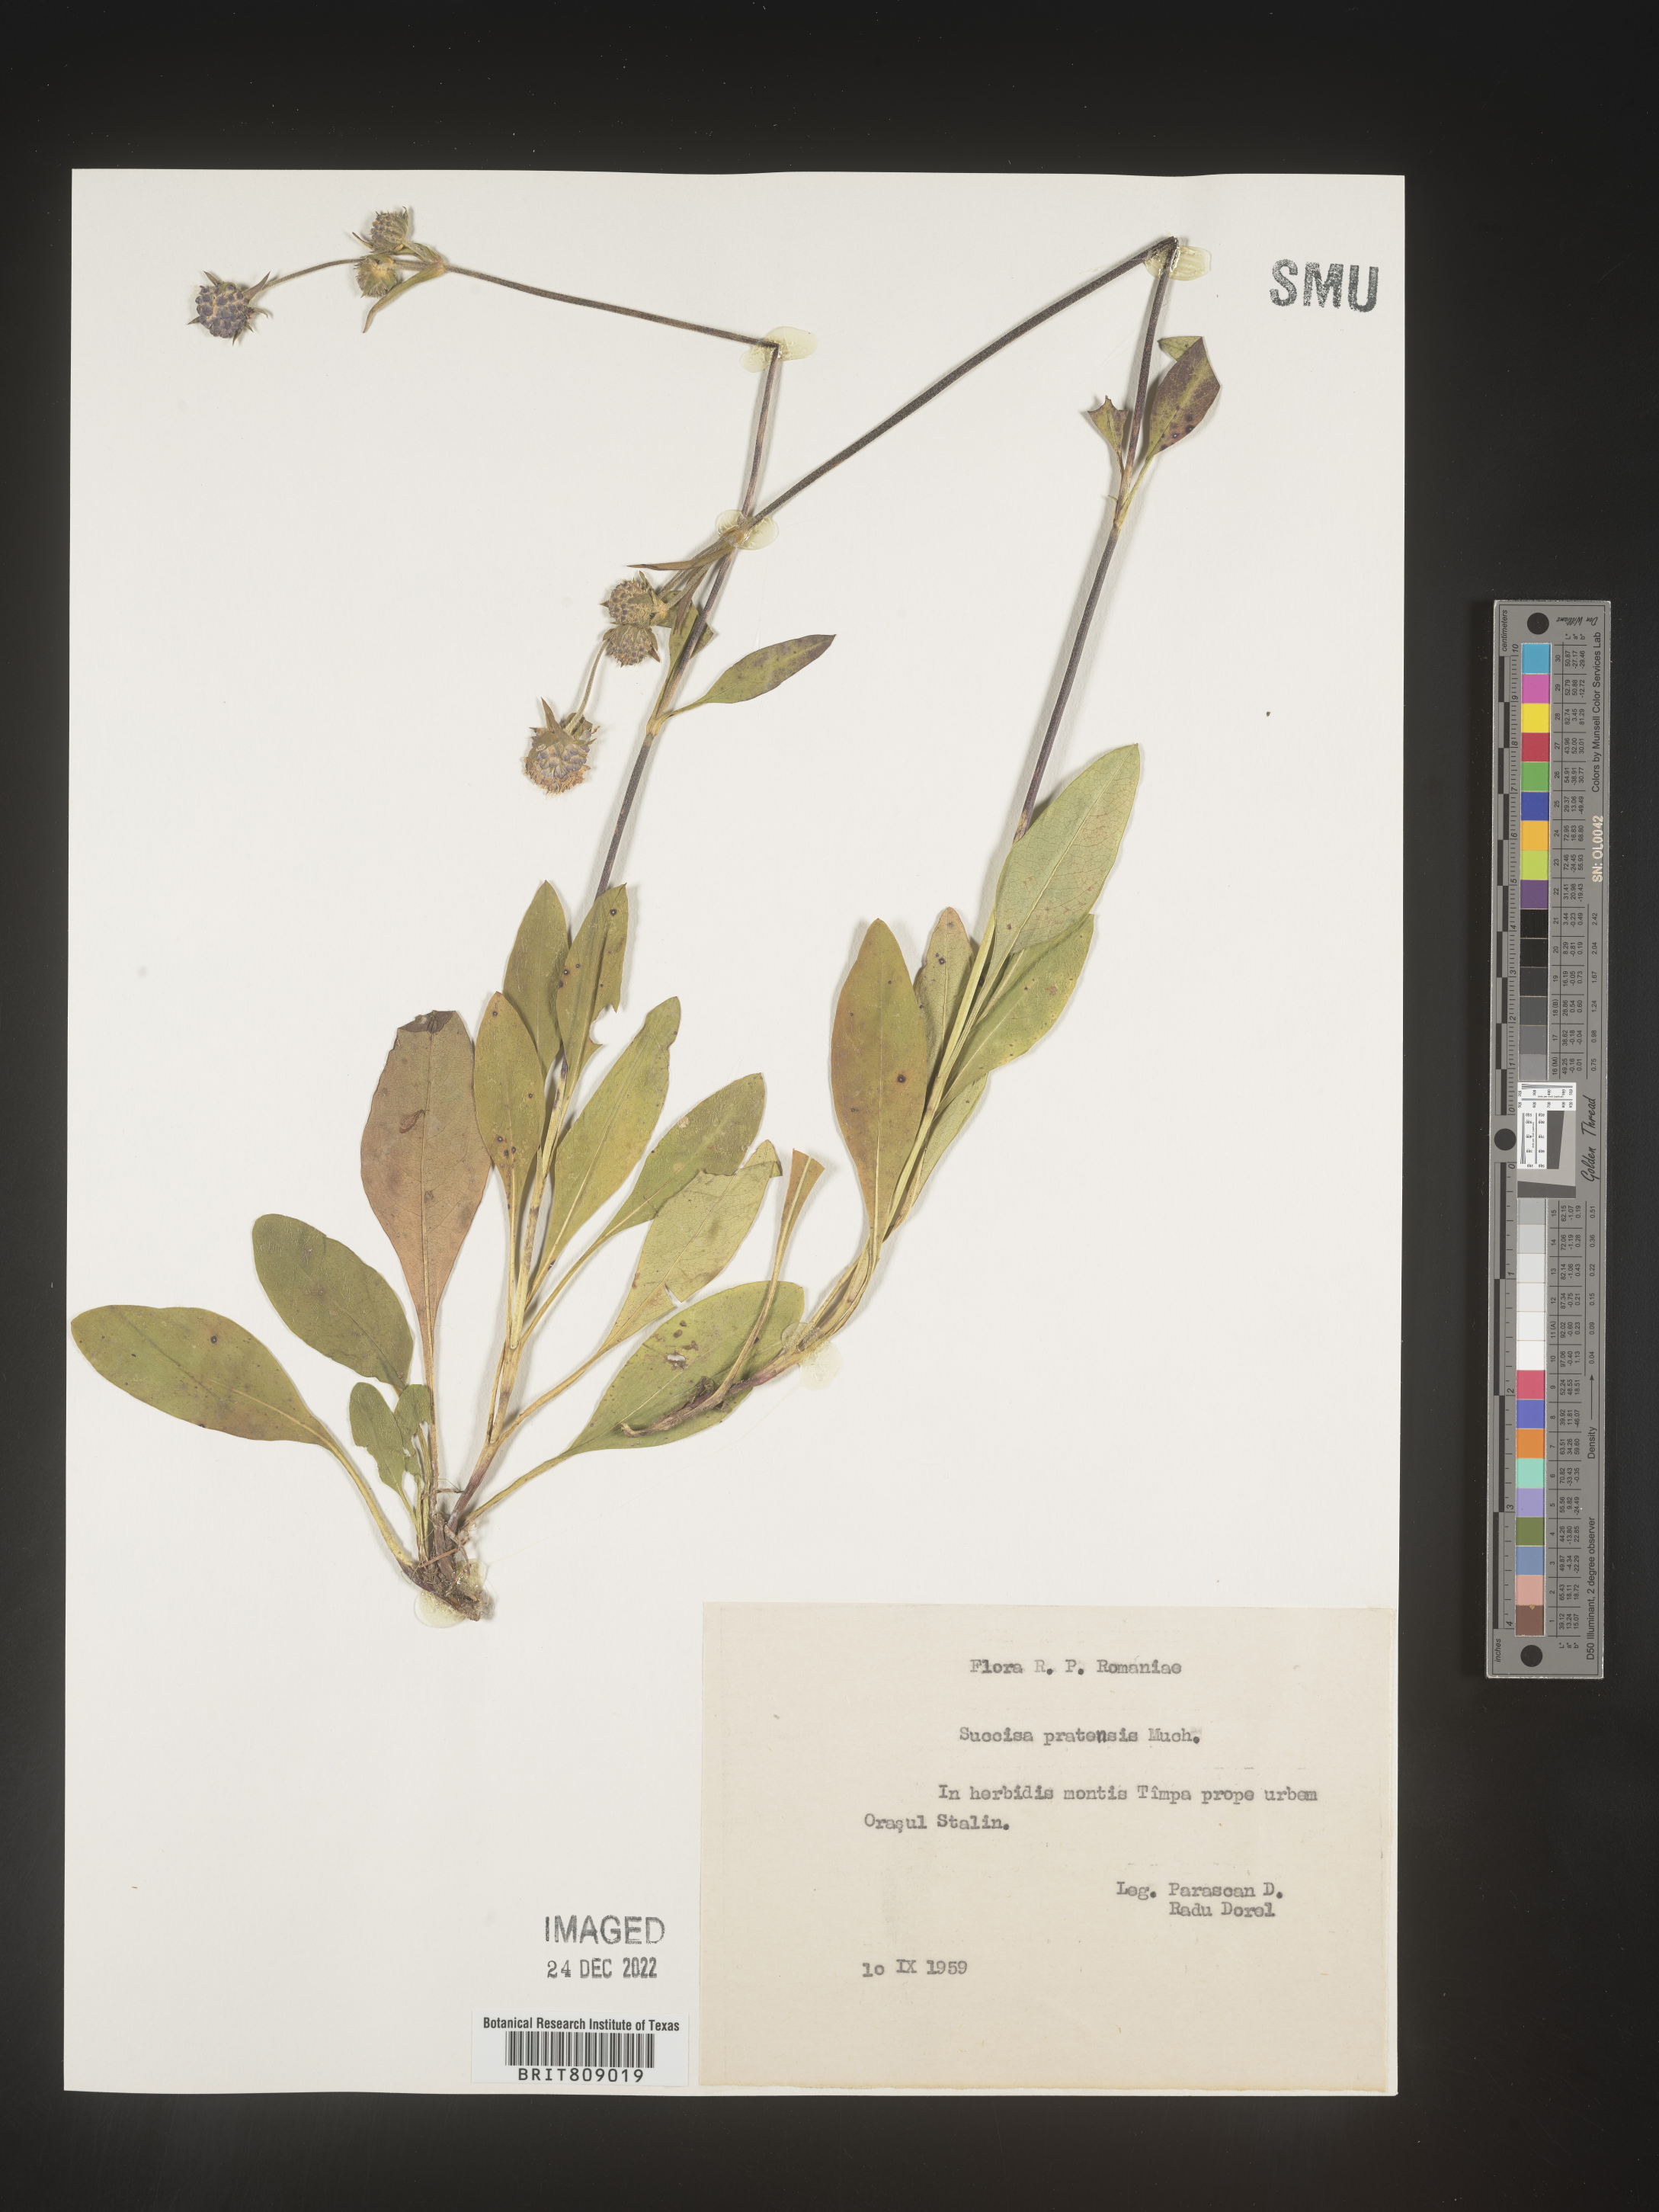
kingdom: Plantae
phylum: Tracheophyta
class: Magnoliopsida
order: Dipsacales
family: Caprifoliaceae
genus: Succisa
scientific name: Succisa
